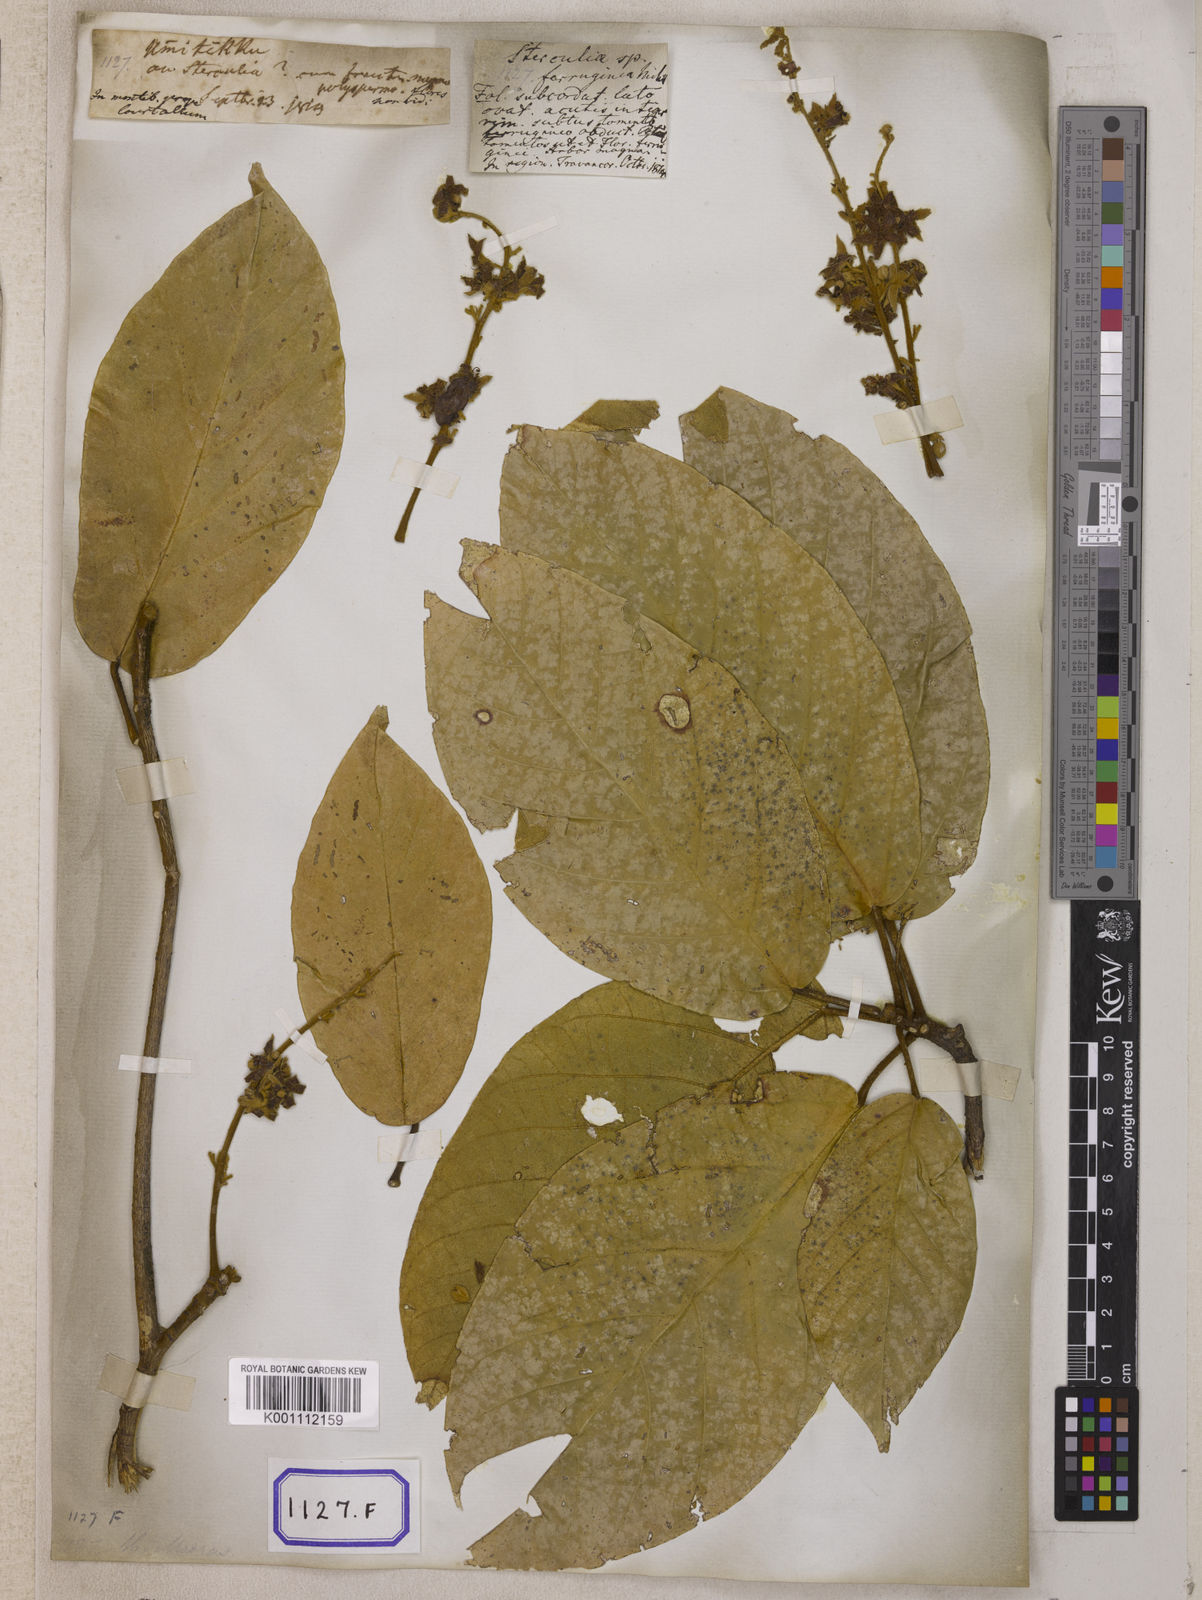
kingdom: Plantae
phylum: Tracheophyta
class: Magnoliopsida
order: Malvales
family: Malvaceae
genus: Sterculia
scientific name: Sterculia guttata
